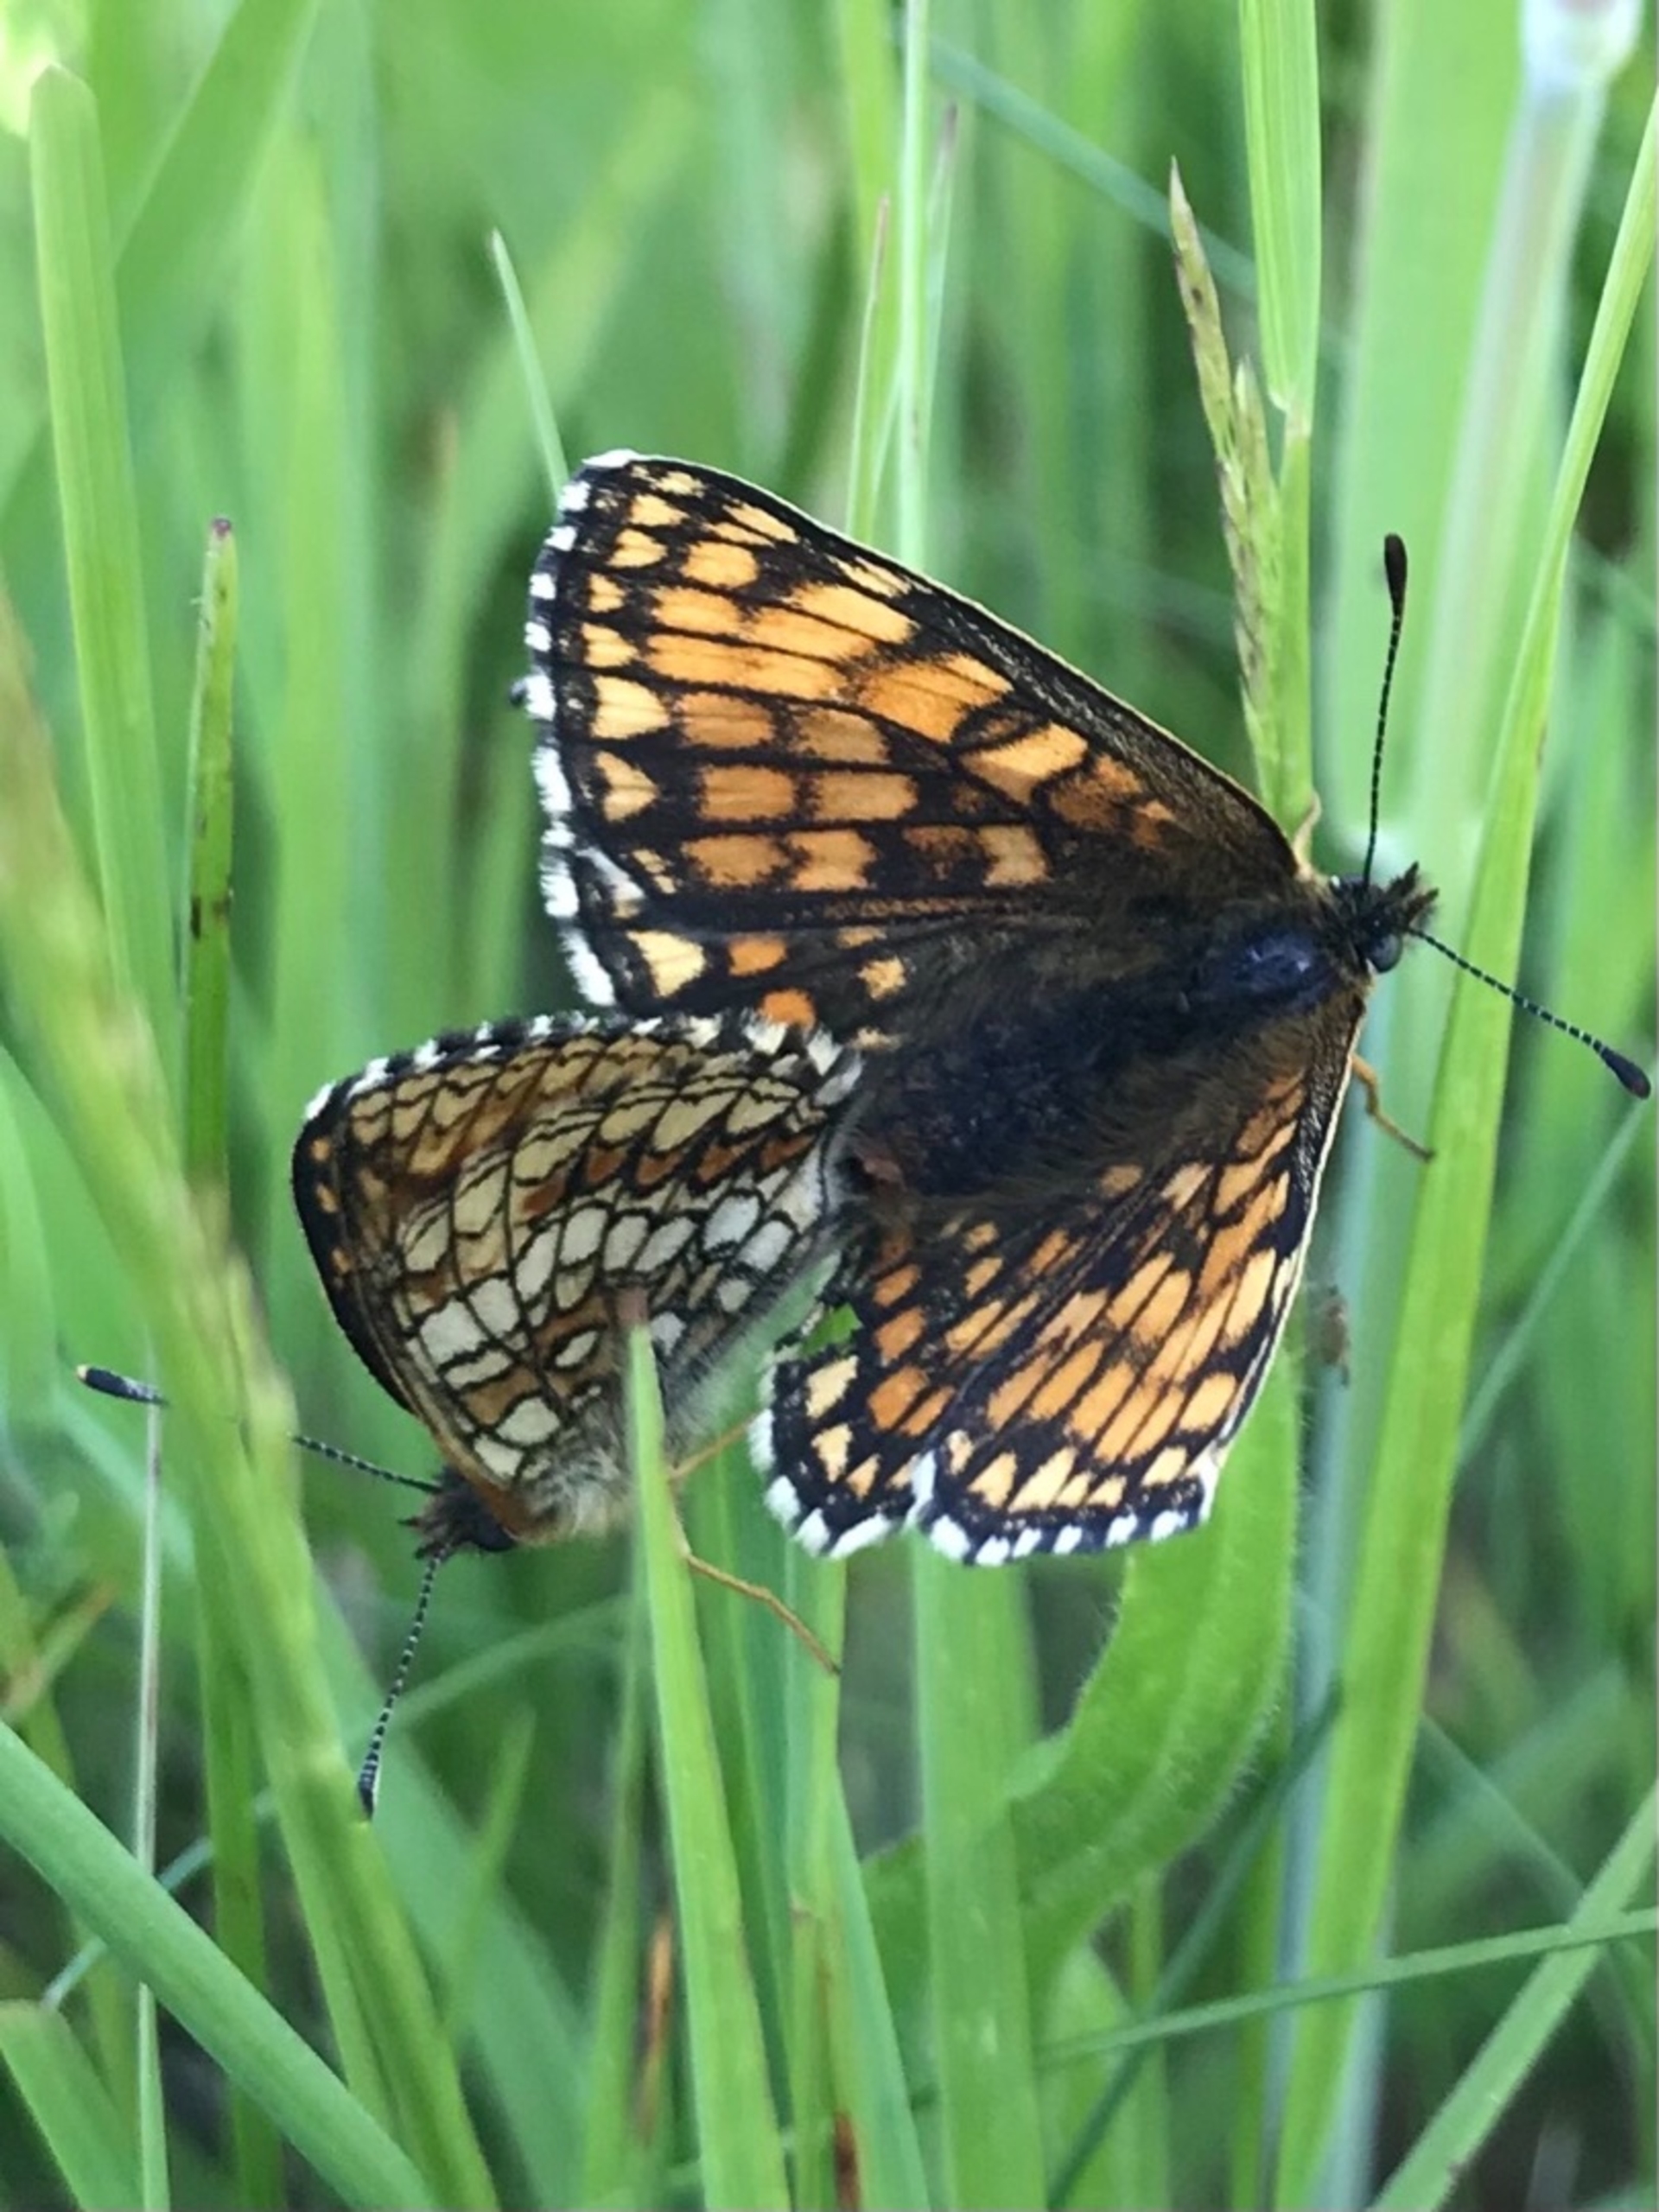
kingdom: Animalia
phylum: Arthropoda
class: Insecta
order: Lepidoptera
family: Nymphalidae
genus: Mellicta
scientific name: Mellicta athalia
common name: Brun pletvinge
